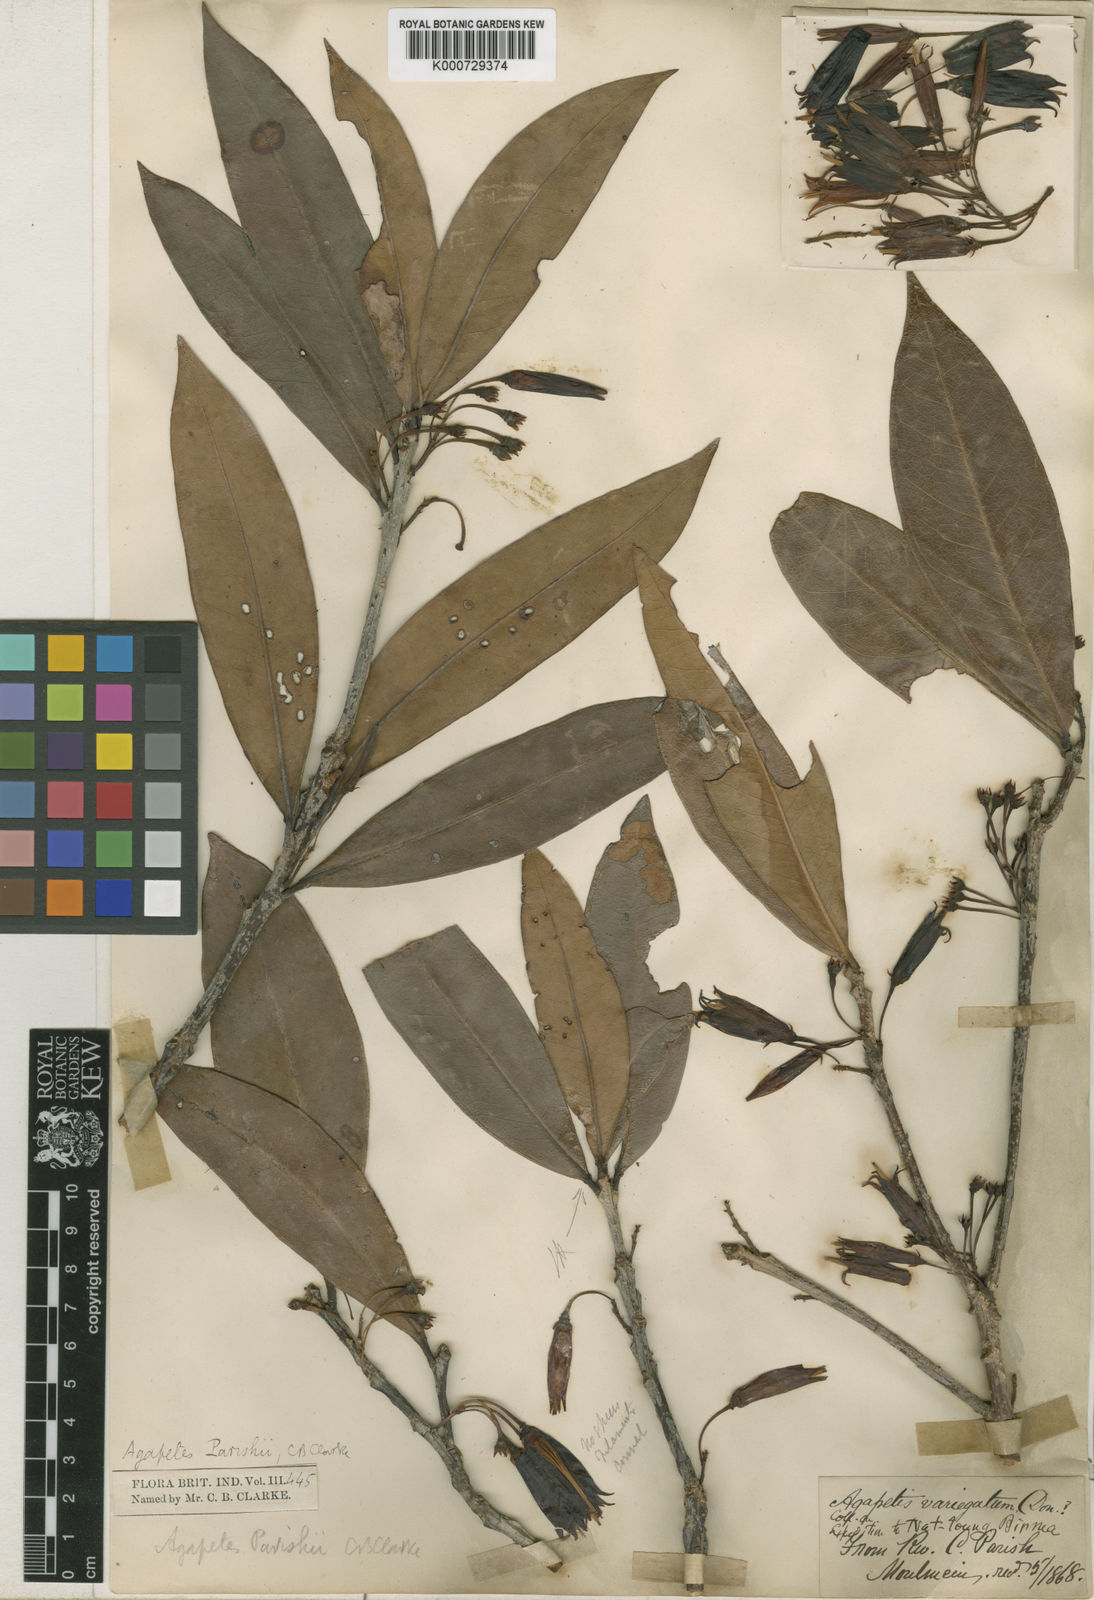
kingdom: Plantae
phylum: Tracheophyta
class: Magnoliopsida
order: Ericales
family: Ericaceae
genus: Agapetes
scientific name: Agapetes parishii
